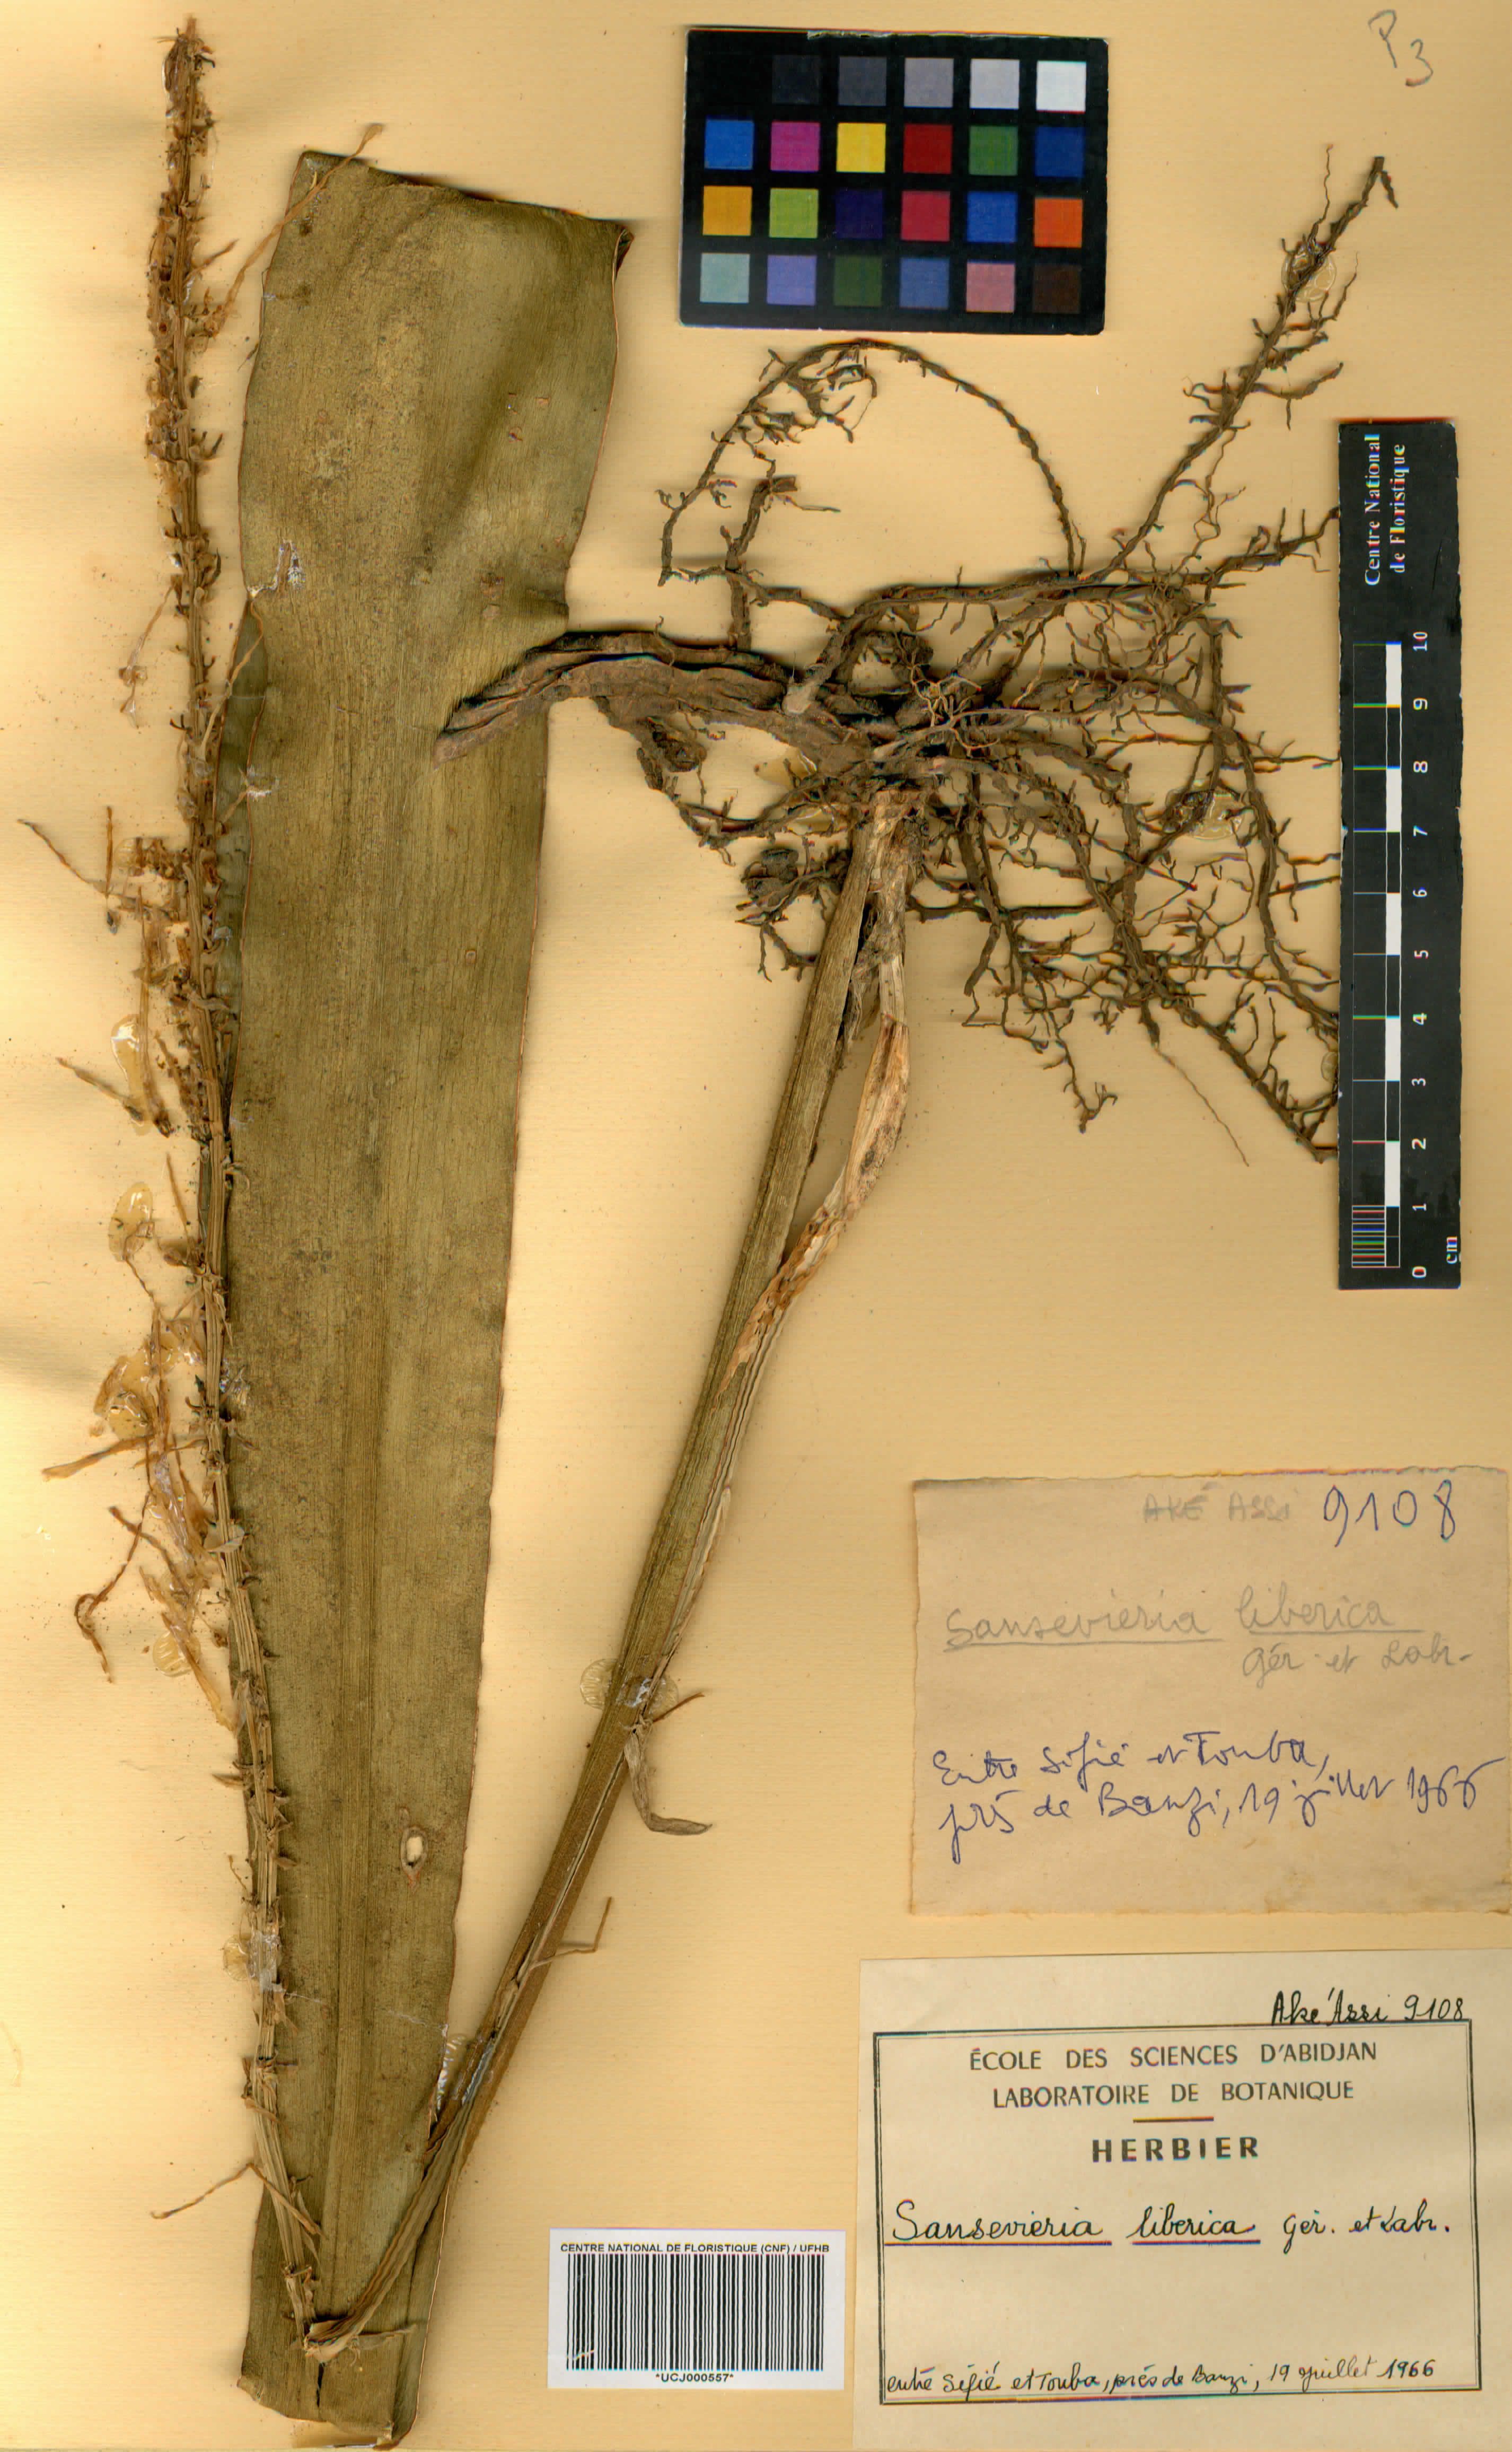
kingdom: Plantae
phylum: Tracheophyta
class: Liliopsida
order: Asparagales
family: Asparagaceae
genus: Dracaena
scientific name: Dracaena liberica
